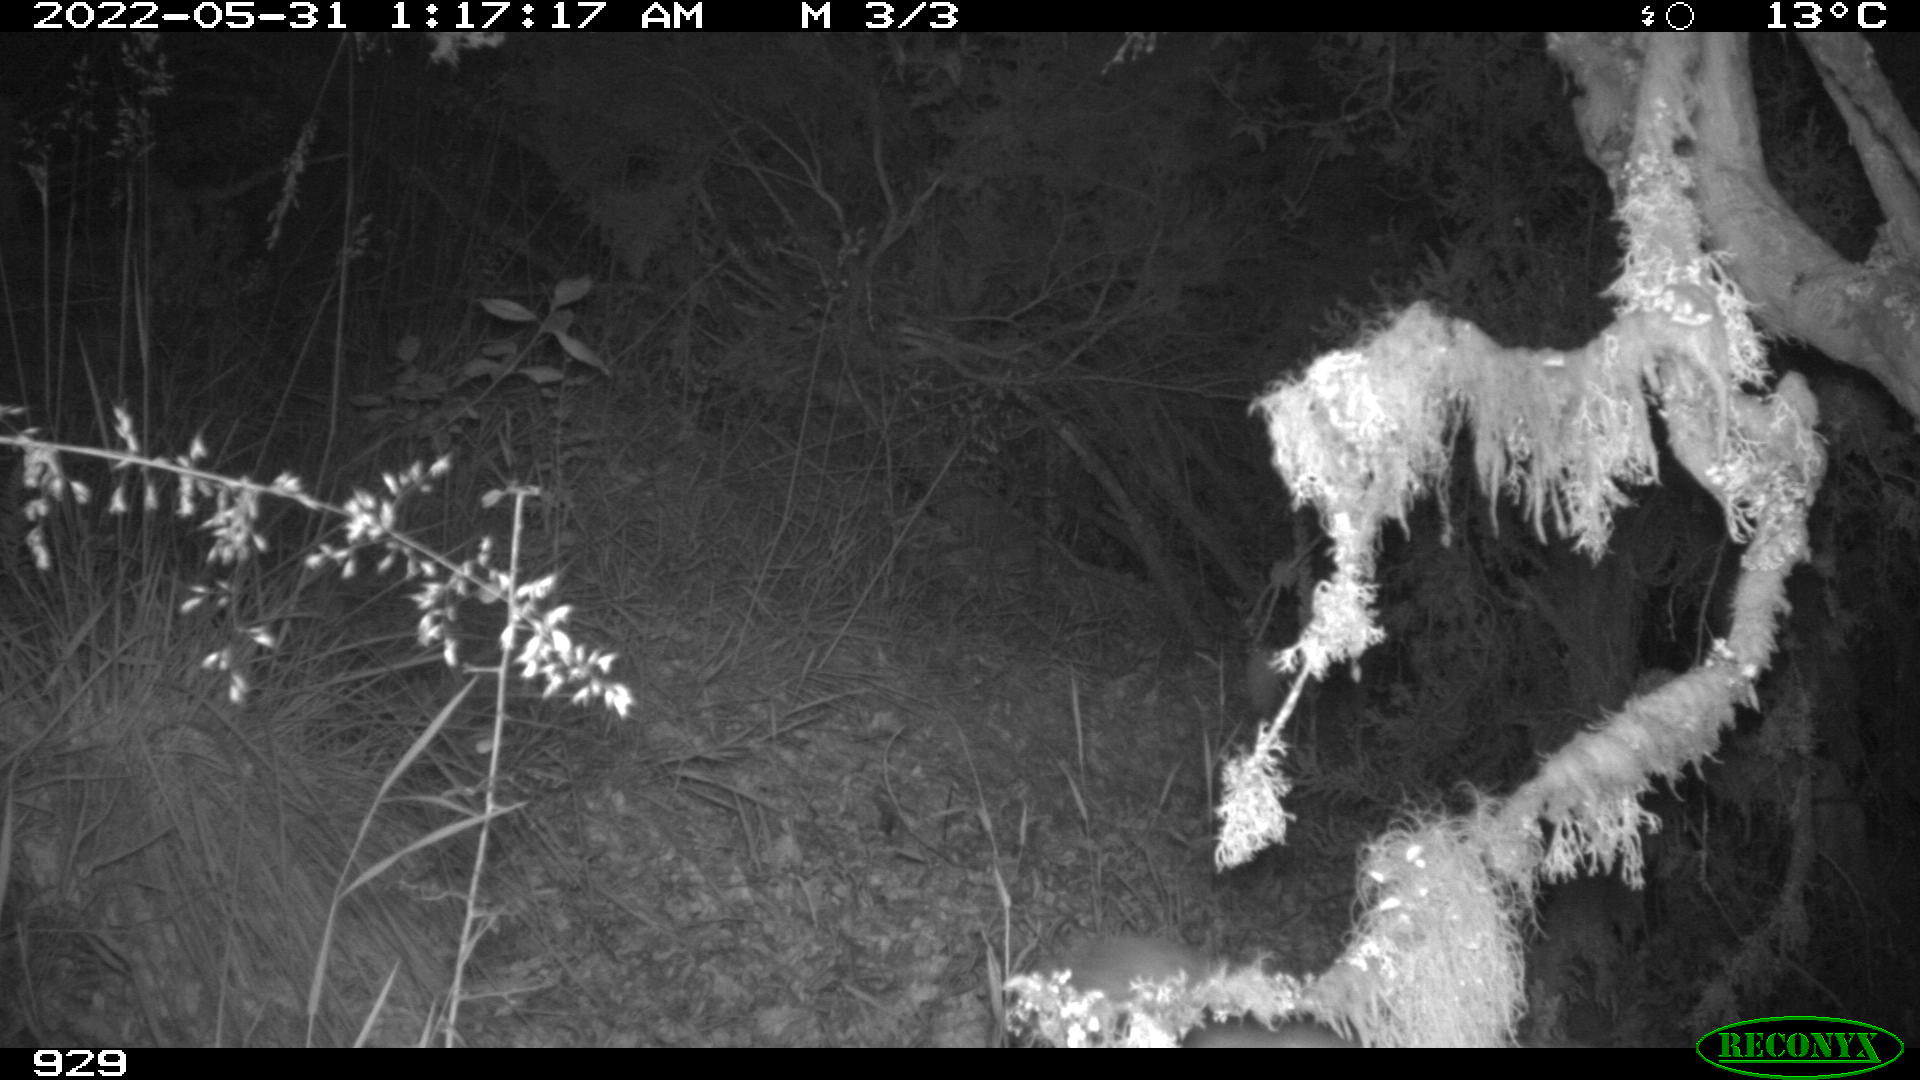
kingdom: Animalia
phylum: Chordata
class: Mammalia
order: Carnivora
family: Canidae
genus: Vulpes
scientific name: Vulpes vulpes
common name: Red fox
